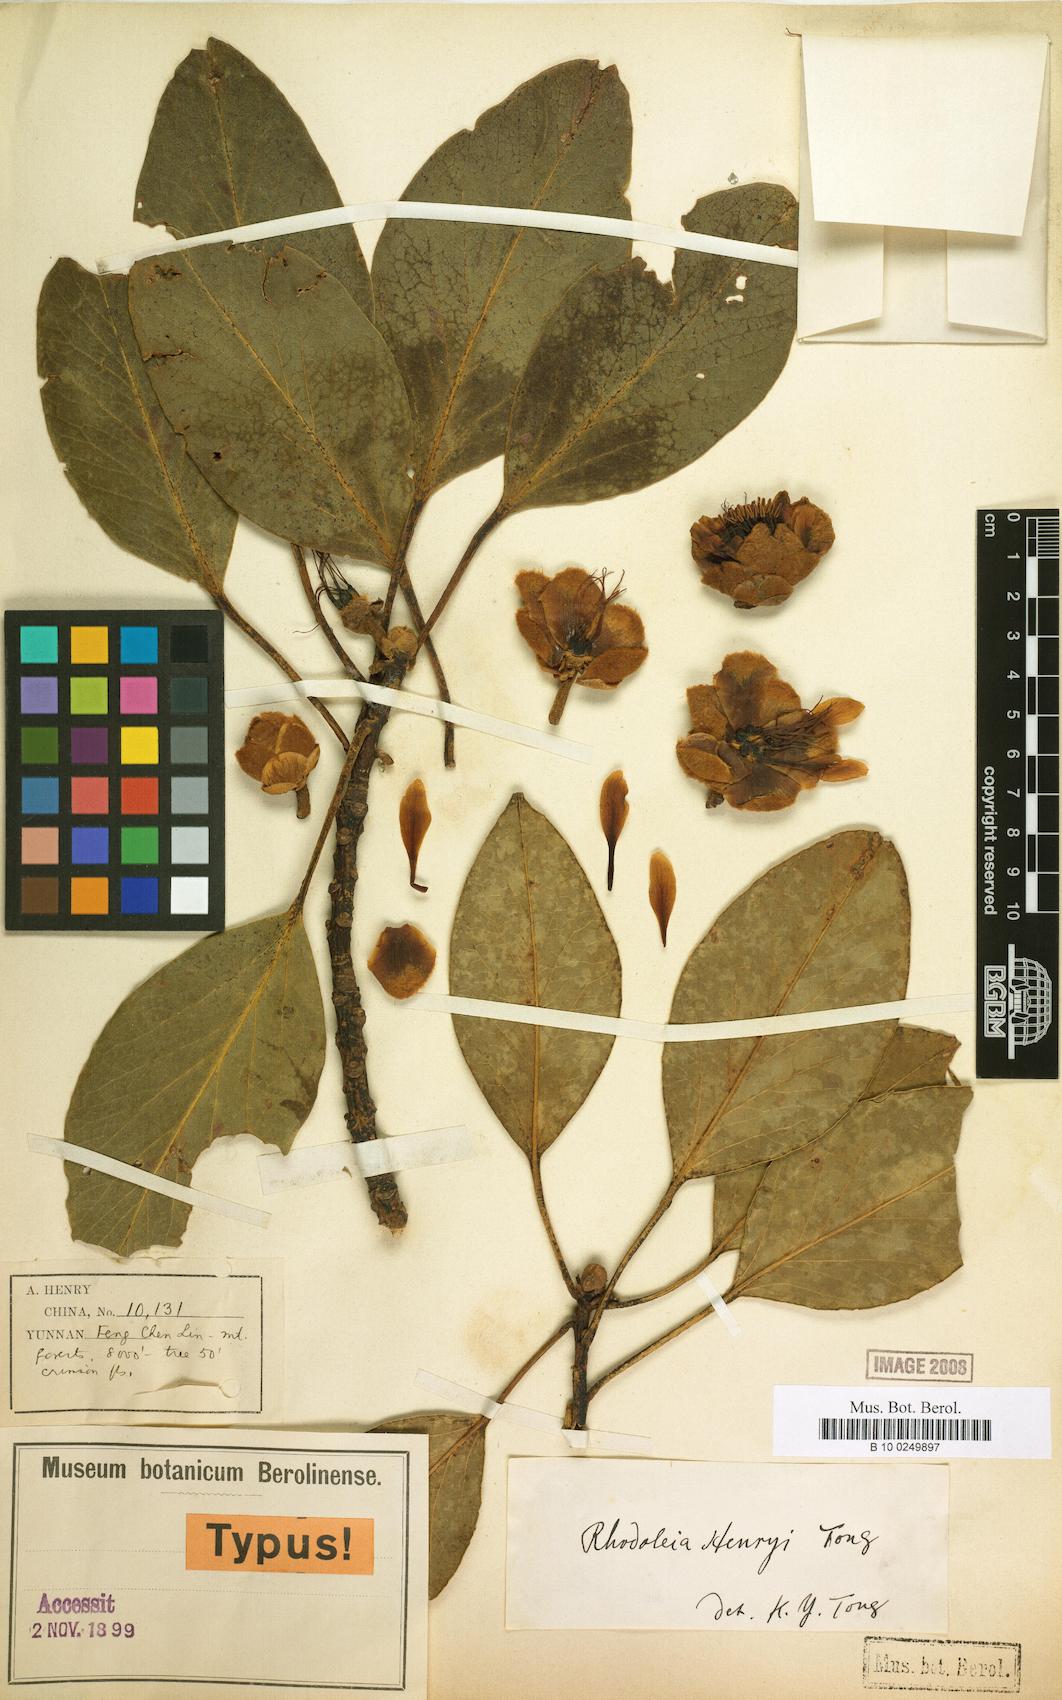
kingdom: Plantae
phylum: Tracheophyta
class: Magnoliopsida
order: Saxifragales
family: Hamamelidaceae
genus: Rhodoleia
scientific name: Rhodoleia henryi
